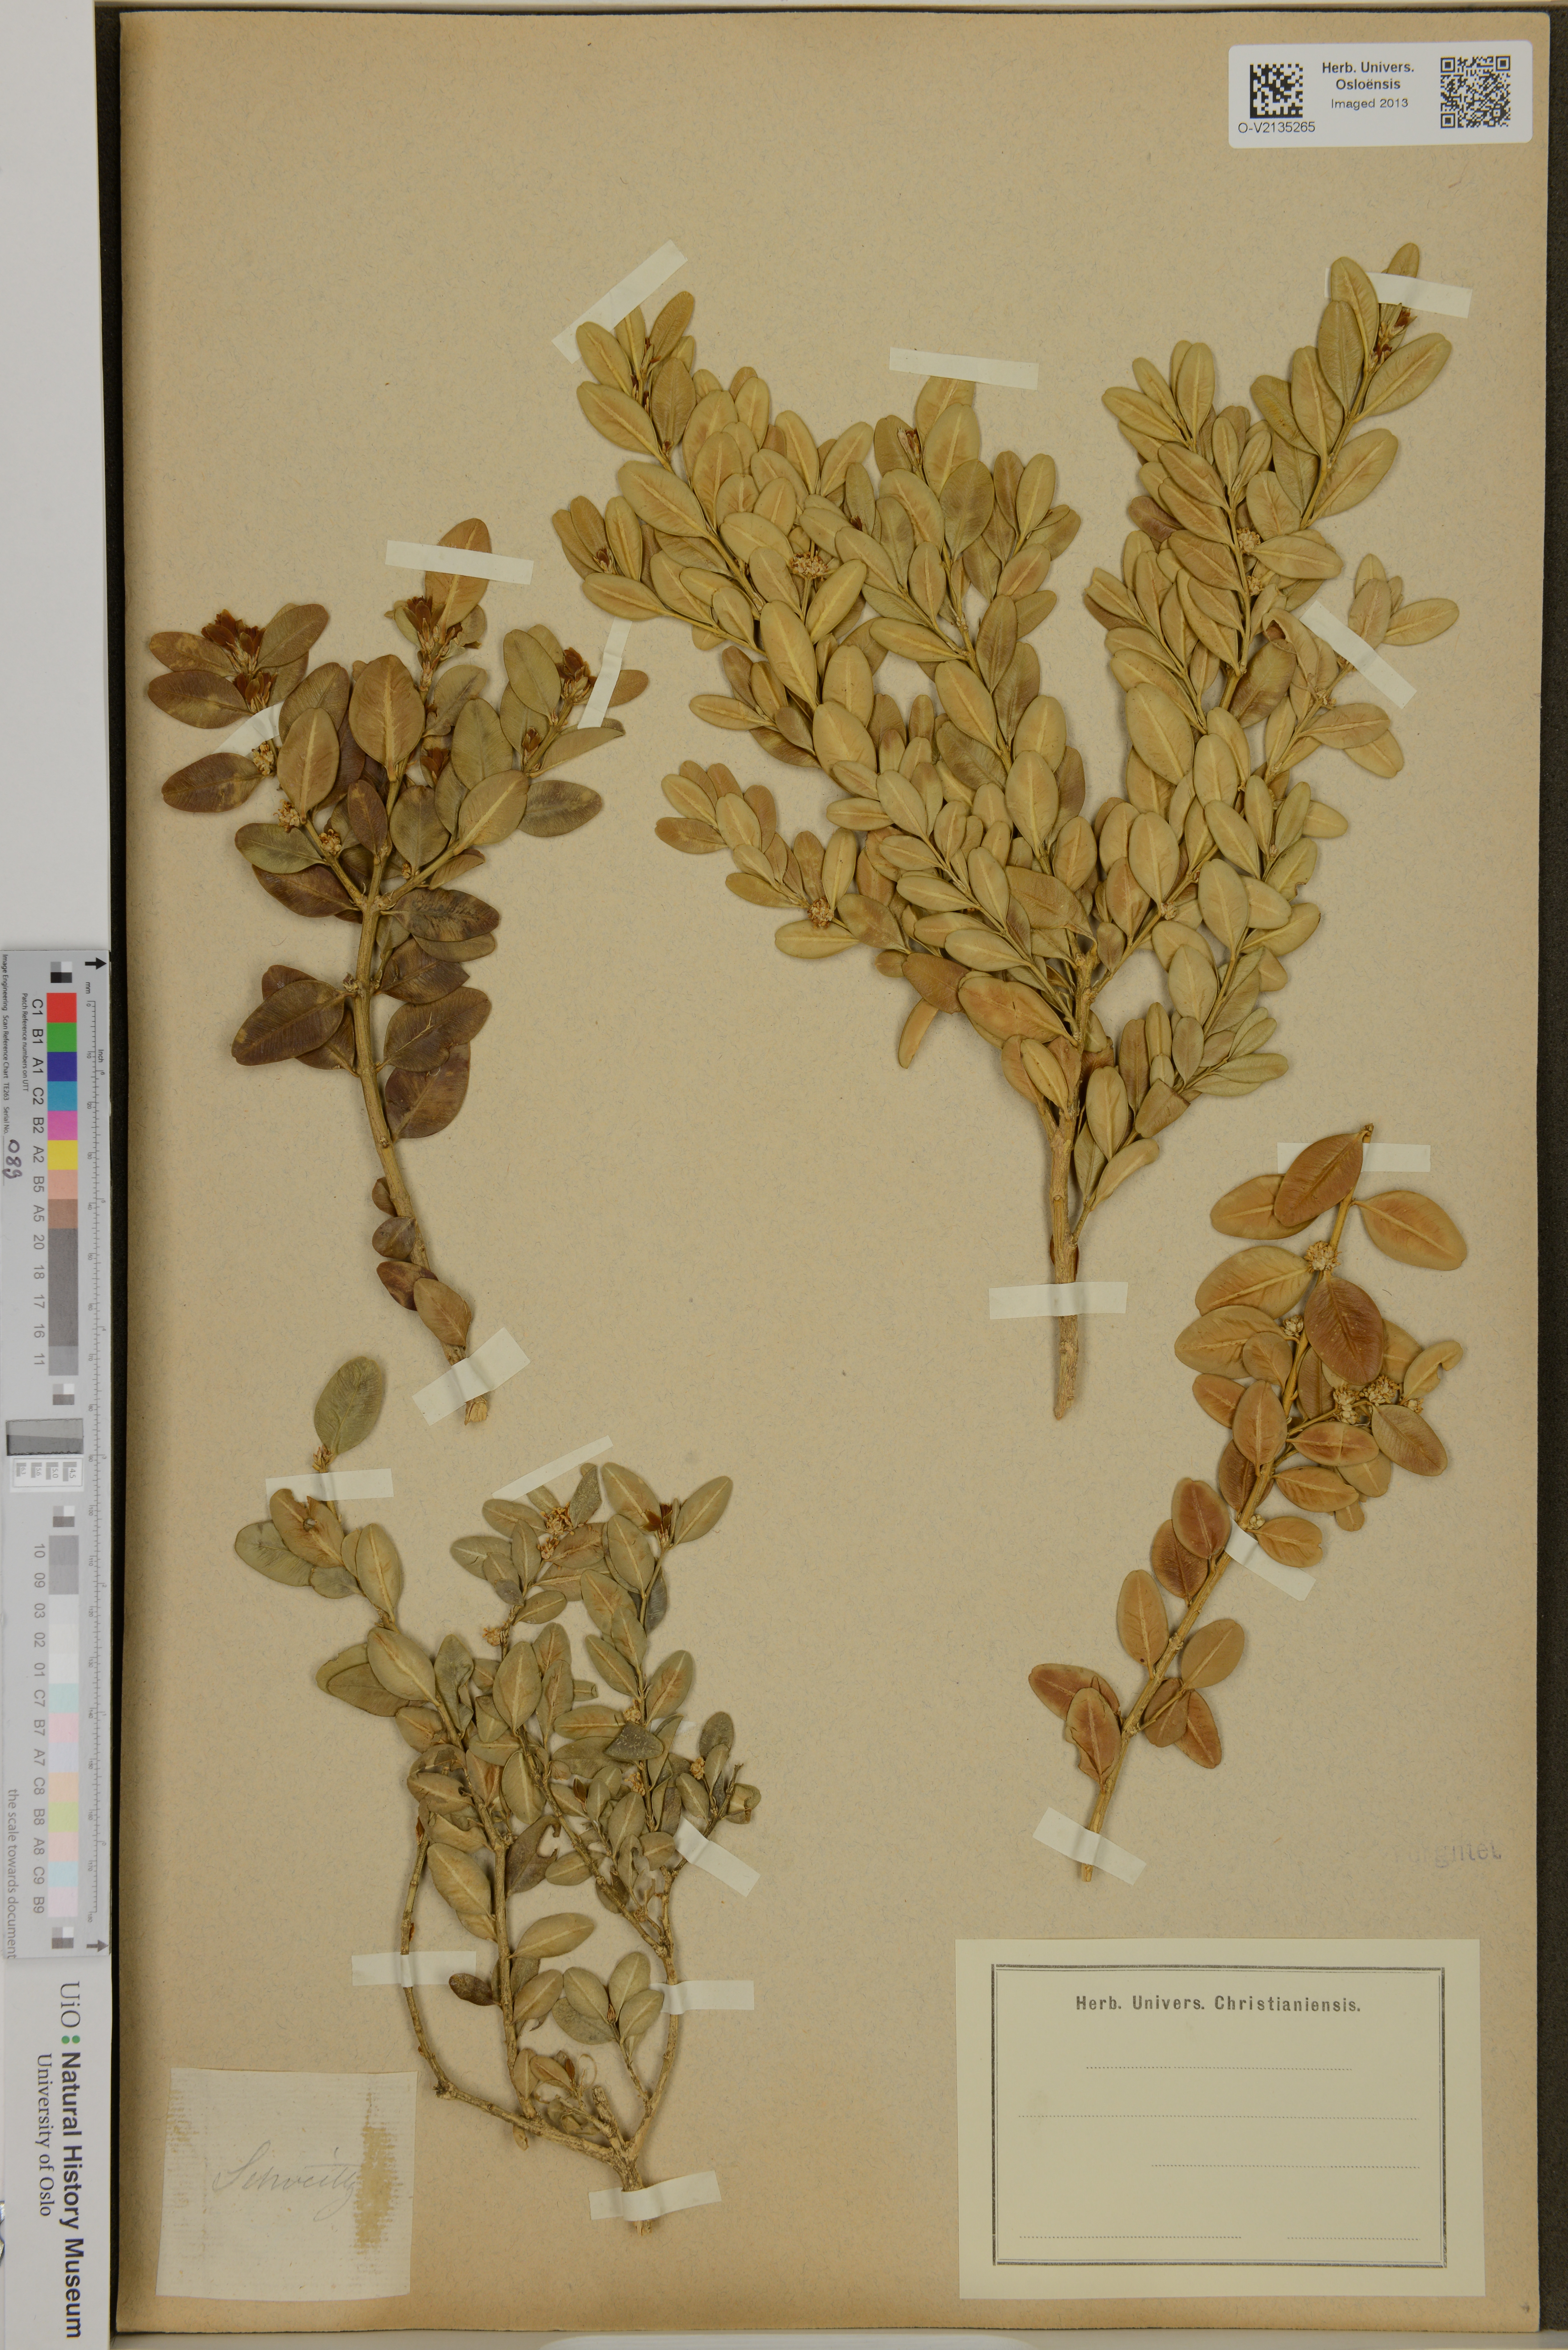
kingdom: Plantae
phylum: Tracheophyta
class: Magnoliopsida
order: Buxales
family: Buxaceae
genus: Buxus
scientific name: Buxus
